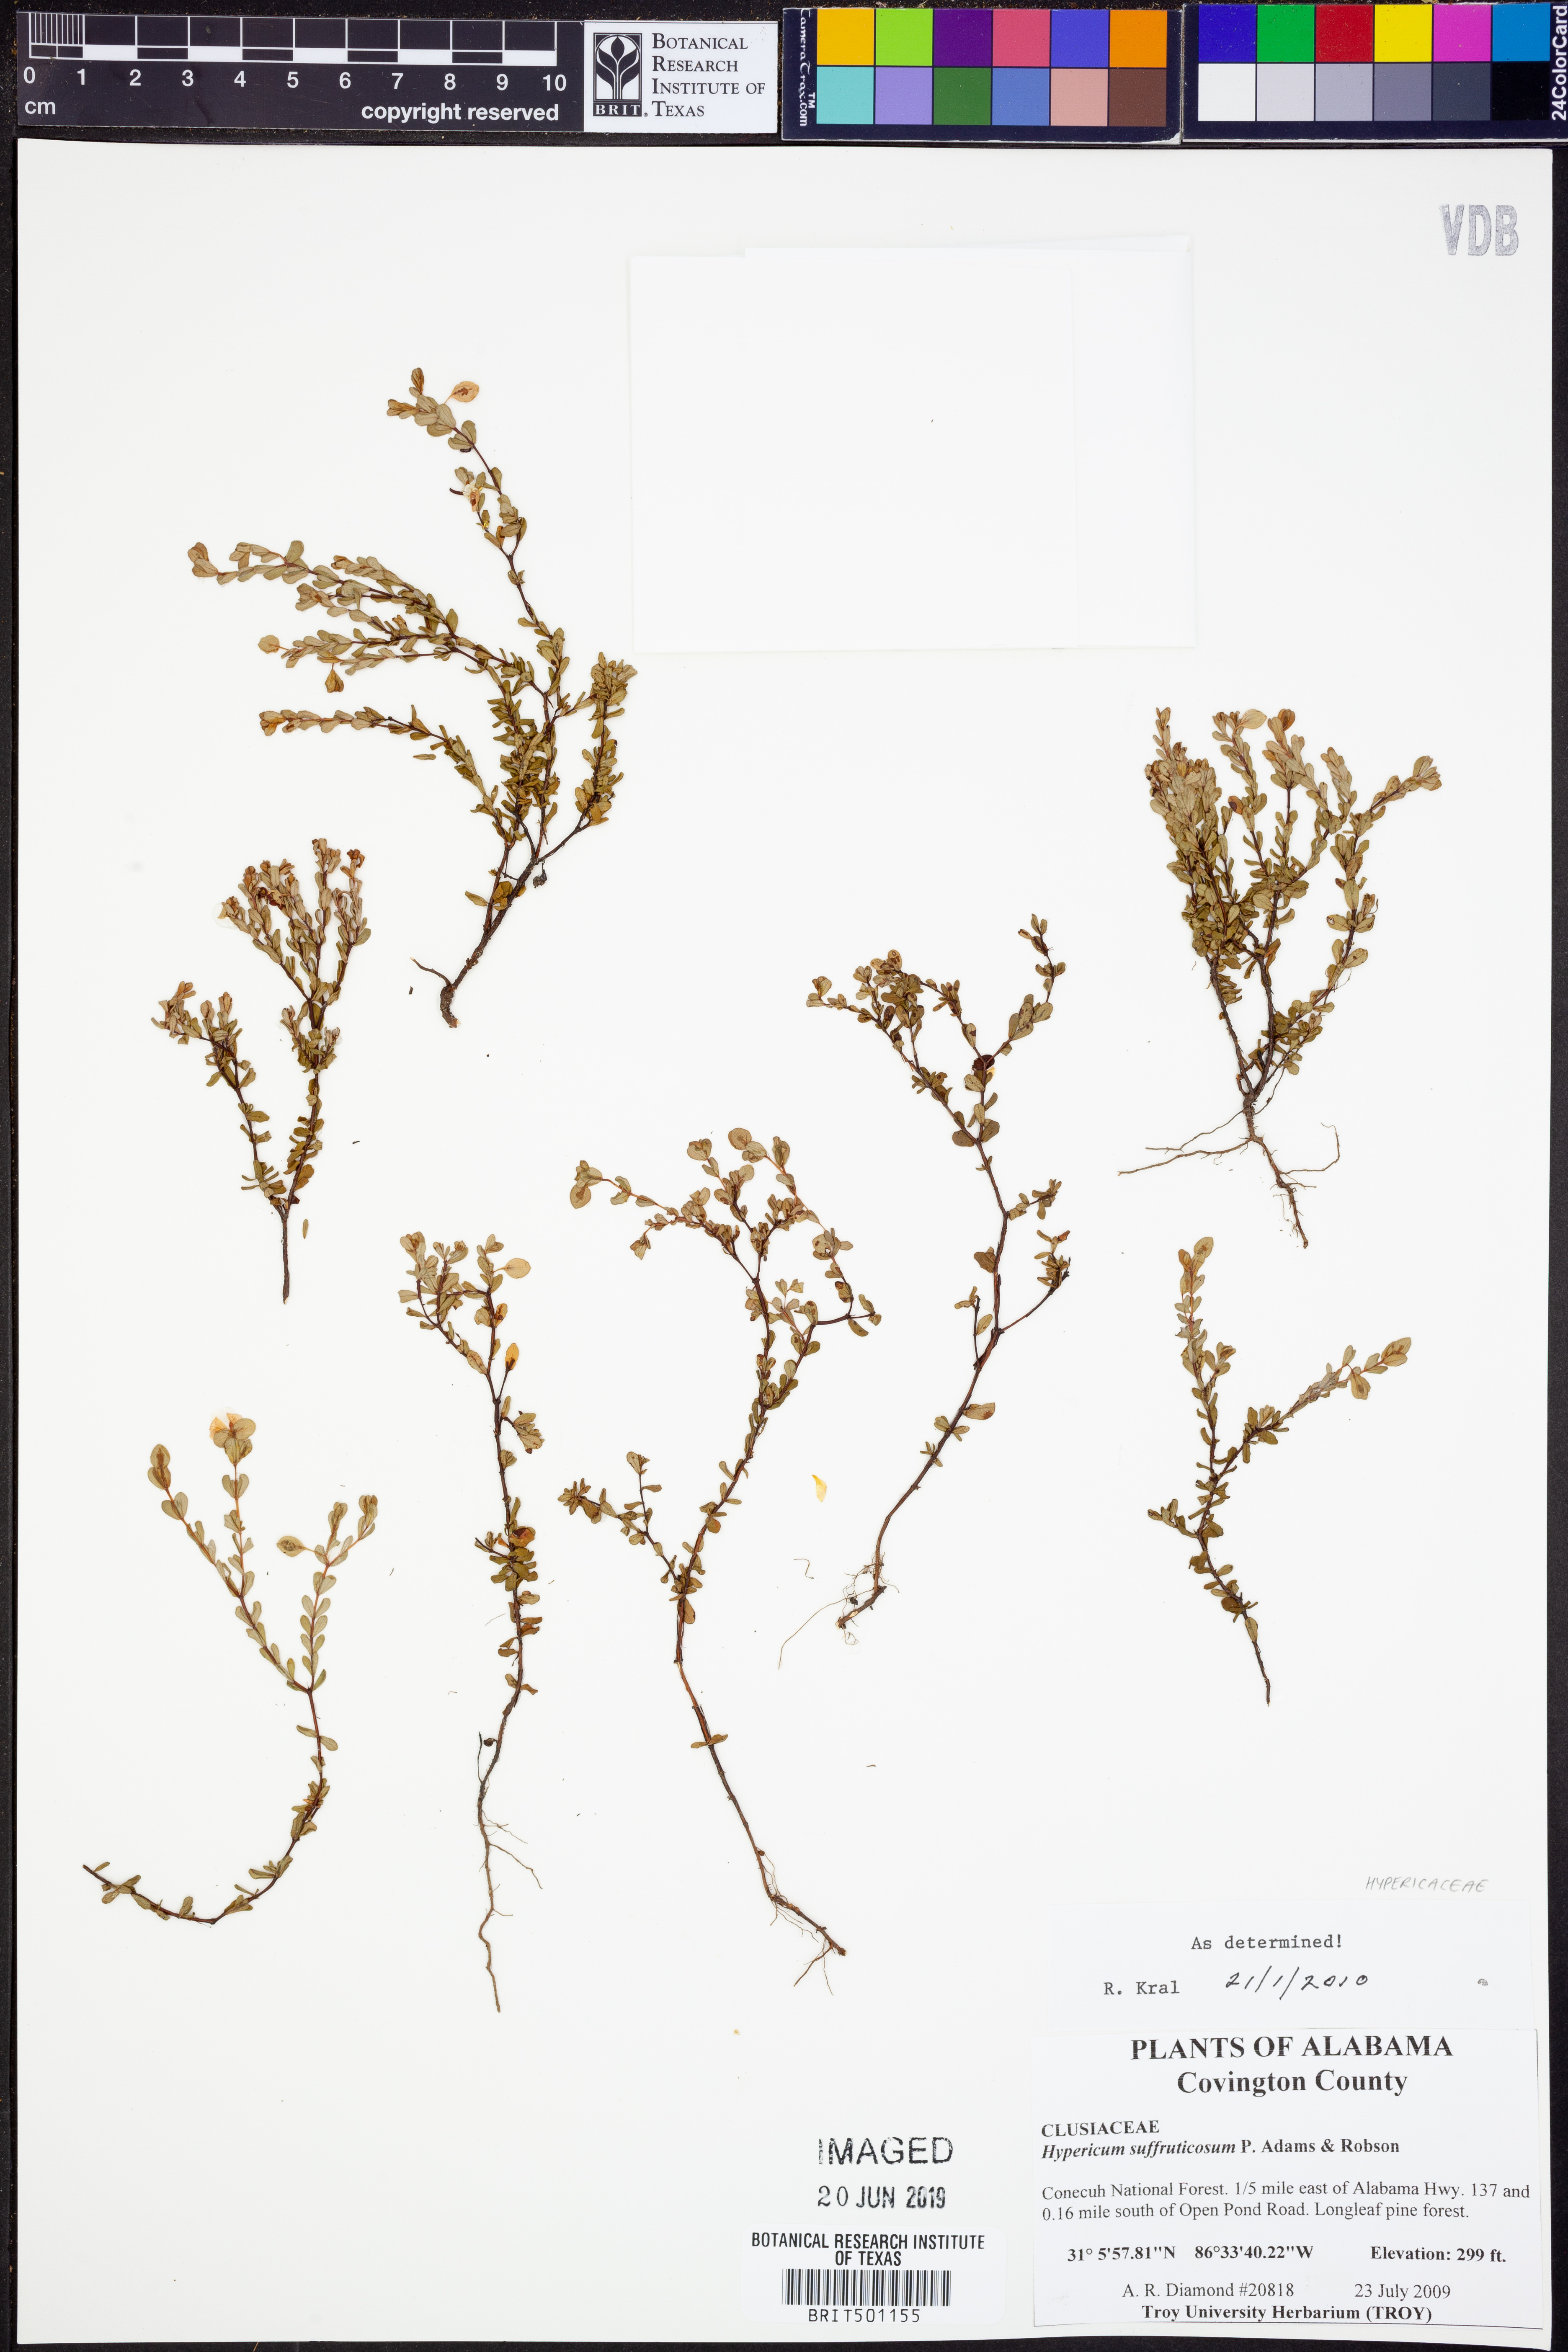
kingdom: Plantae
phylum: Tracheophyta
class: Magnoliopsida
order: Malpighiales
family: Hypericaceae
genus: Hypericum
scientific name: Hypericum suffruticosum
